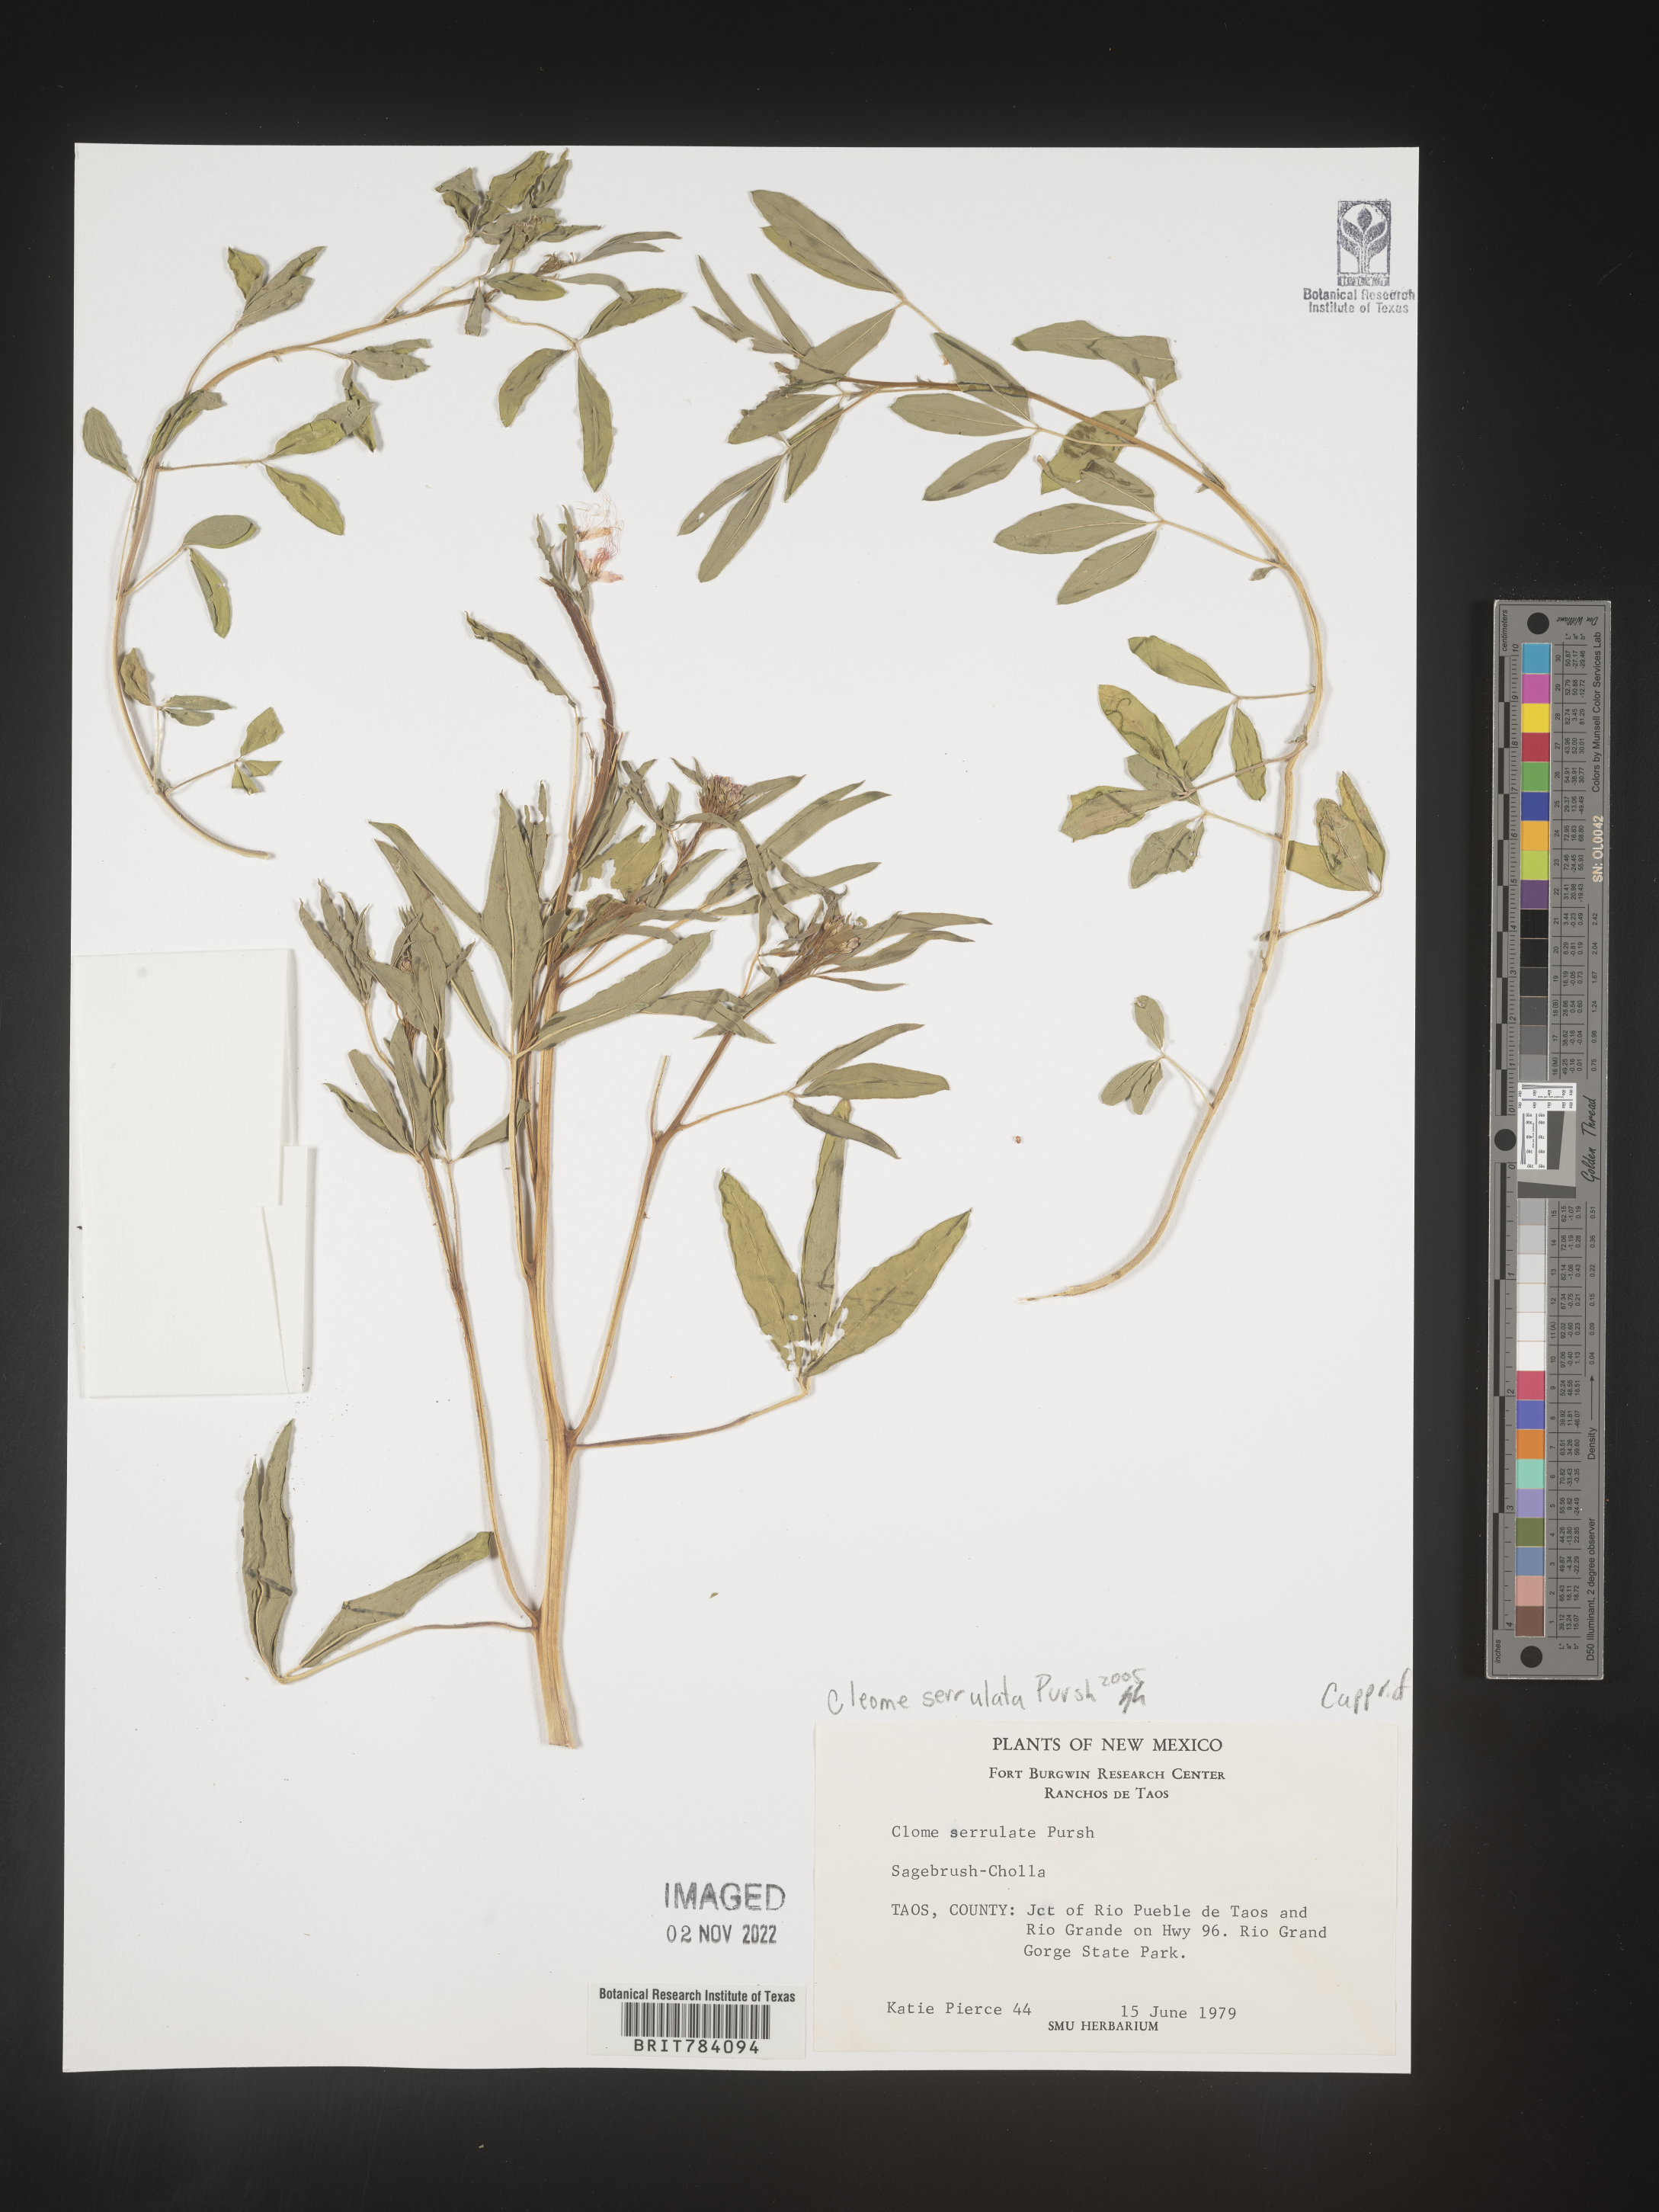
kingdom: Plantae
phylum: Tracheophyta
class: Magnoliopsida
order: Brassicales
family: Cleomaceae
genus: Cleomella
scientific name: Cleomella serrulata
